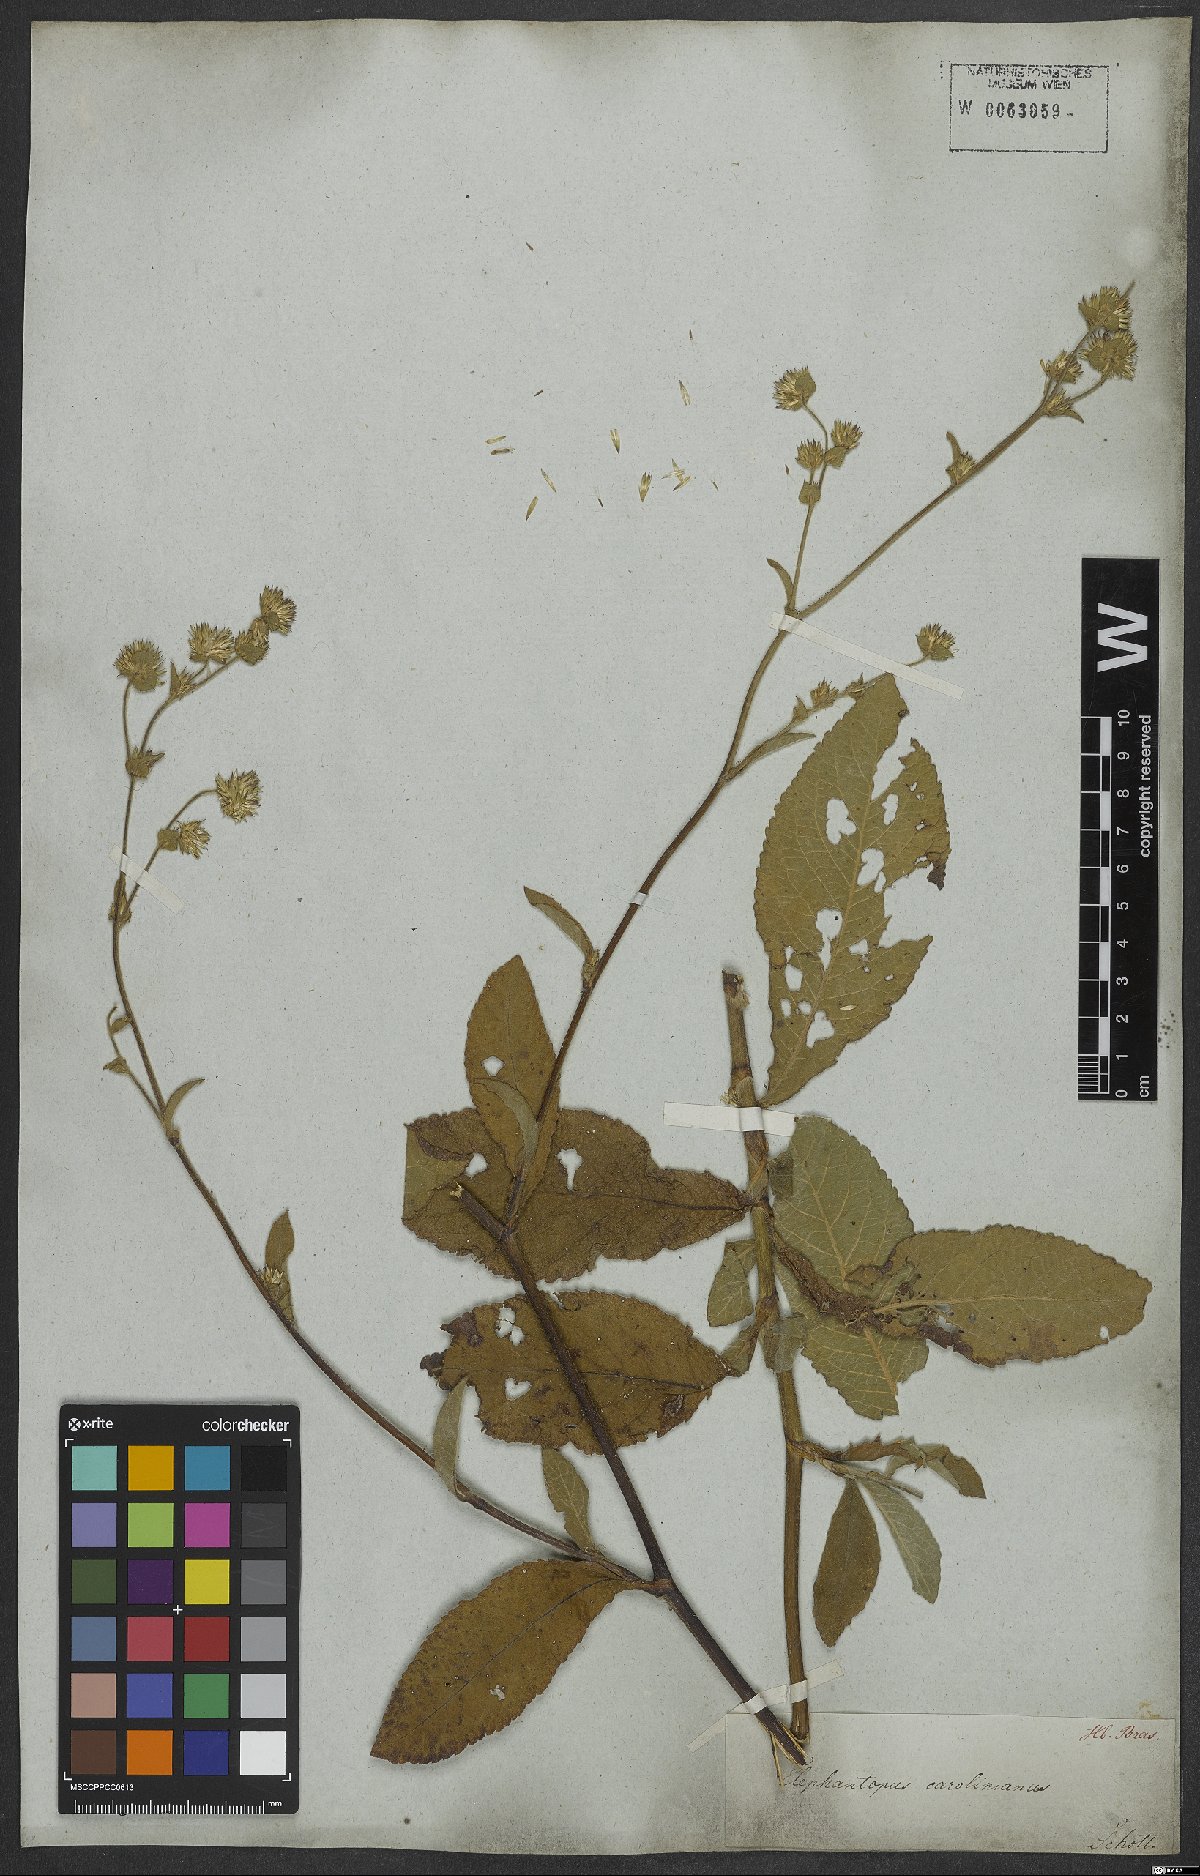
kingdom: Plantae
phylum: Tracheophyta
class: Magnoliopsida
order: Asterales
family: Asteraceae
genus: Elephantopus
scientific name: Elephantopus carolinianus
